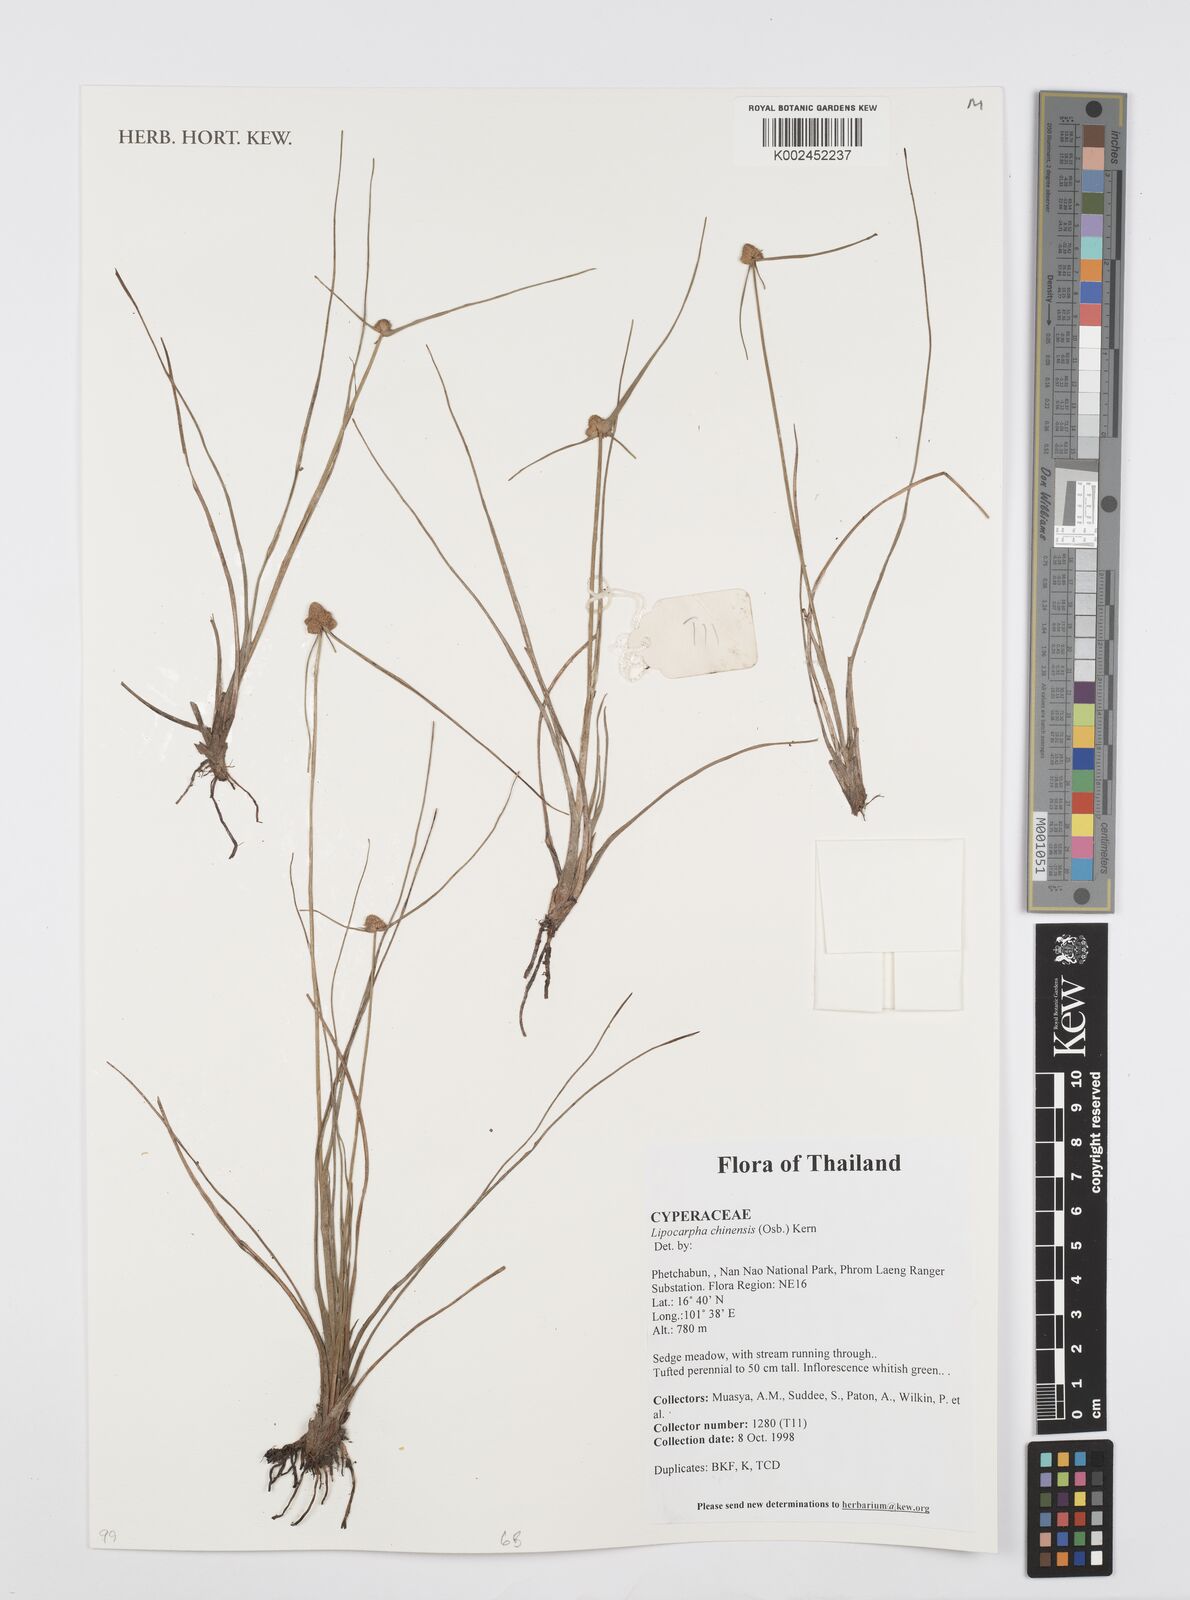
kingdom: Plantae
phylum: Tracheophyta
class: Liliopsida
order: Poales
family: Cyperaceae
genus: Cyperus
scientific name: Cyperus albescens
